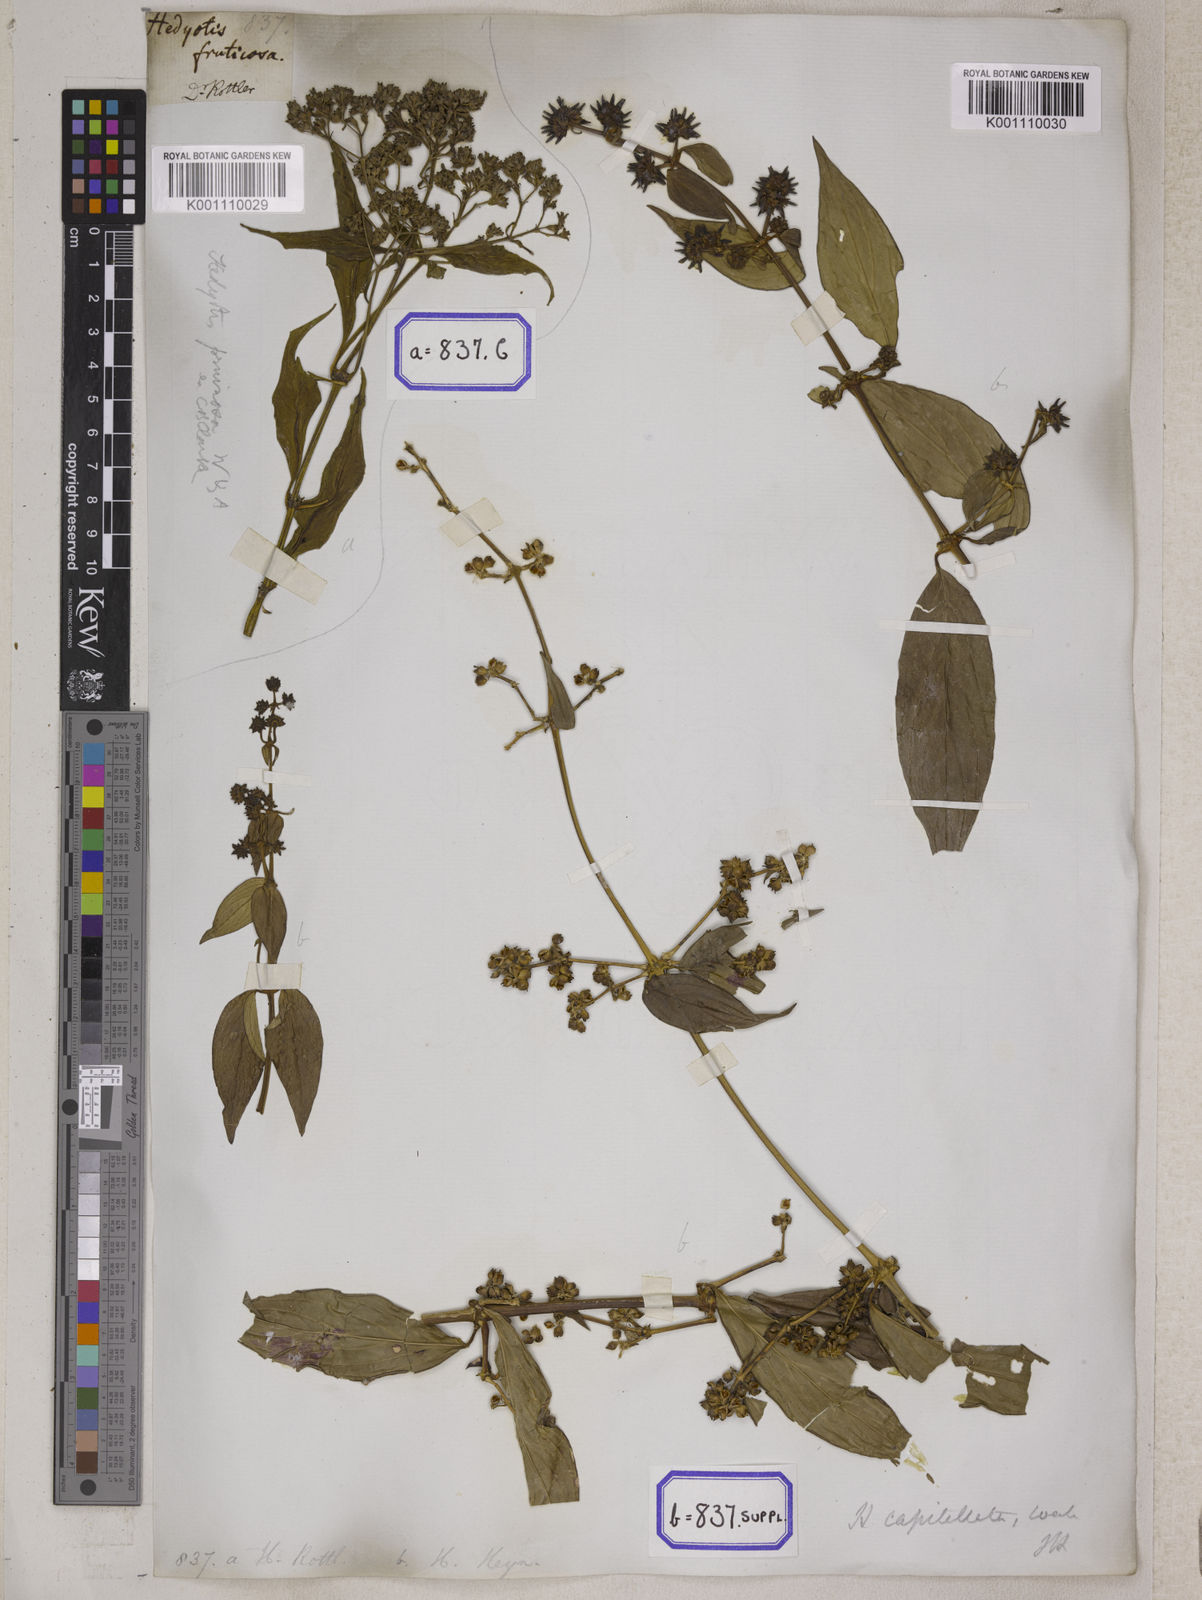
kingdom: Plantae
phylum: Tracheophyta
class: Magnoliopsida
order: Gentianales
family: Rubiaceae
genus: Hedyotis
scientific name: Hedyotis
